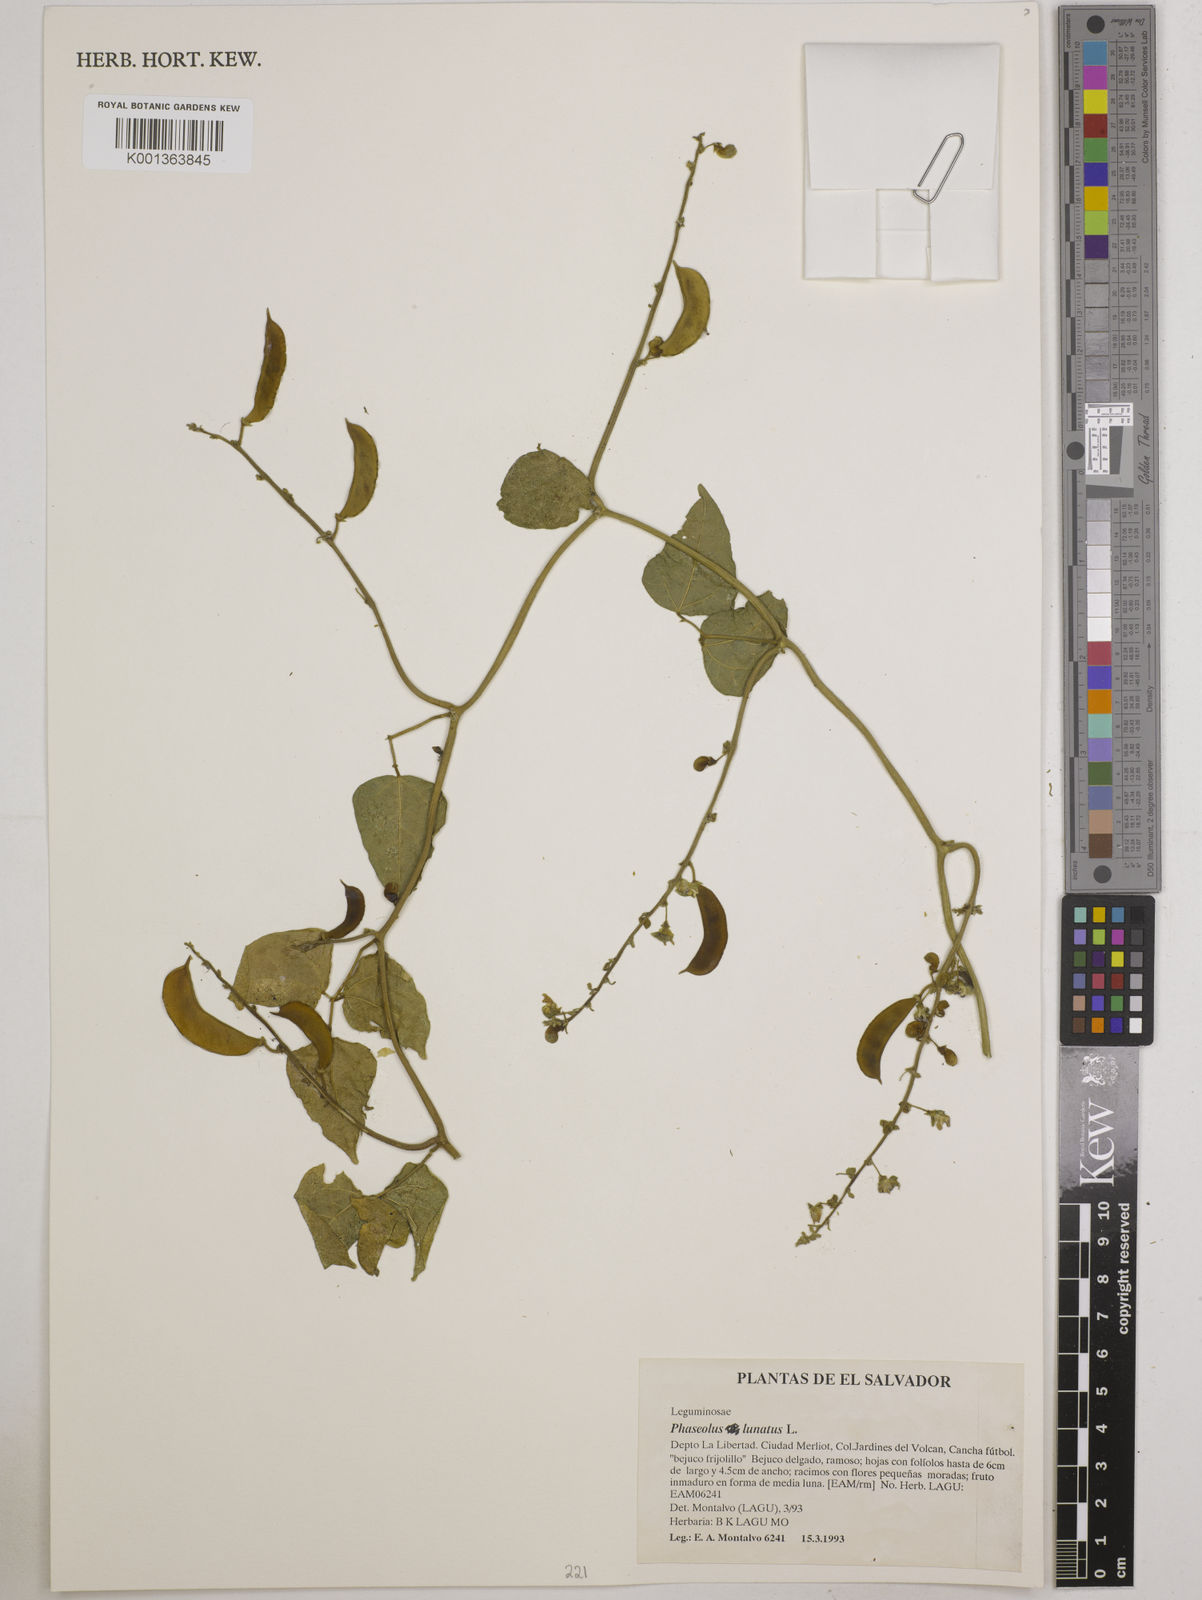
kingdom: Plantae
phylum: Tracheophyta
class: Magnoliopsida
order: Fabales
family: Fabaceae
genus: Phaseolus
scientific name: Phaseolus lunatus
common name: Sieva bean
